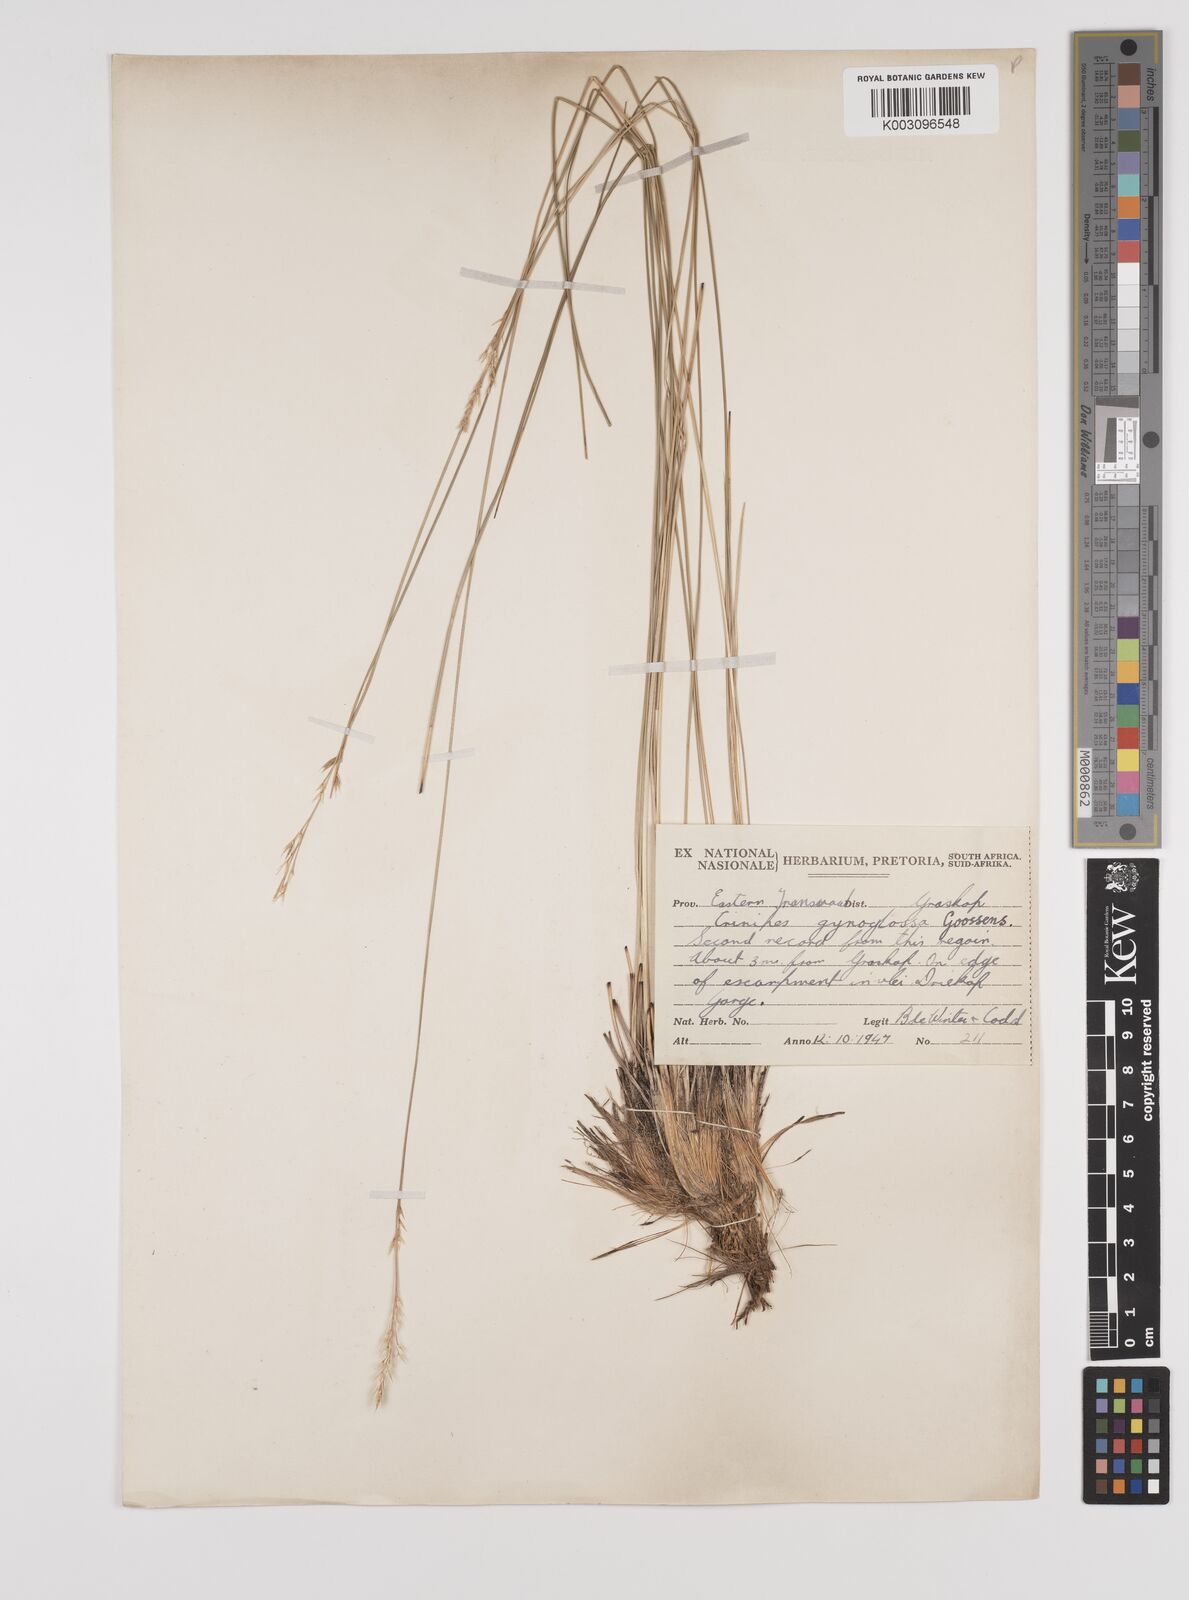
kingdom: Plantae
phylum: Tracheophyta
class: Liliopsida
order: Poales
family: Poaceae
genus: Styppeiochloa
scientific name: Styppeiochloa gynoglossa
